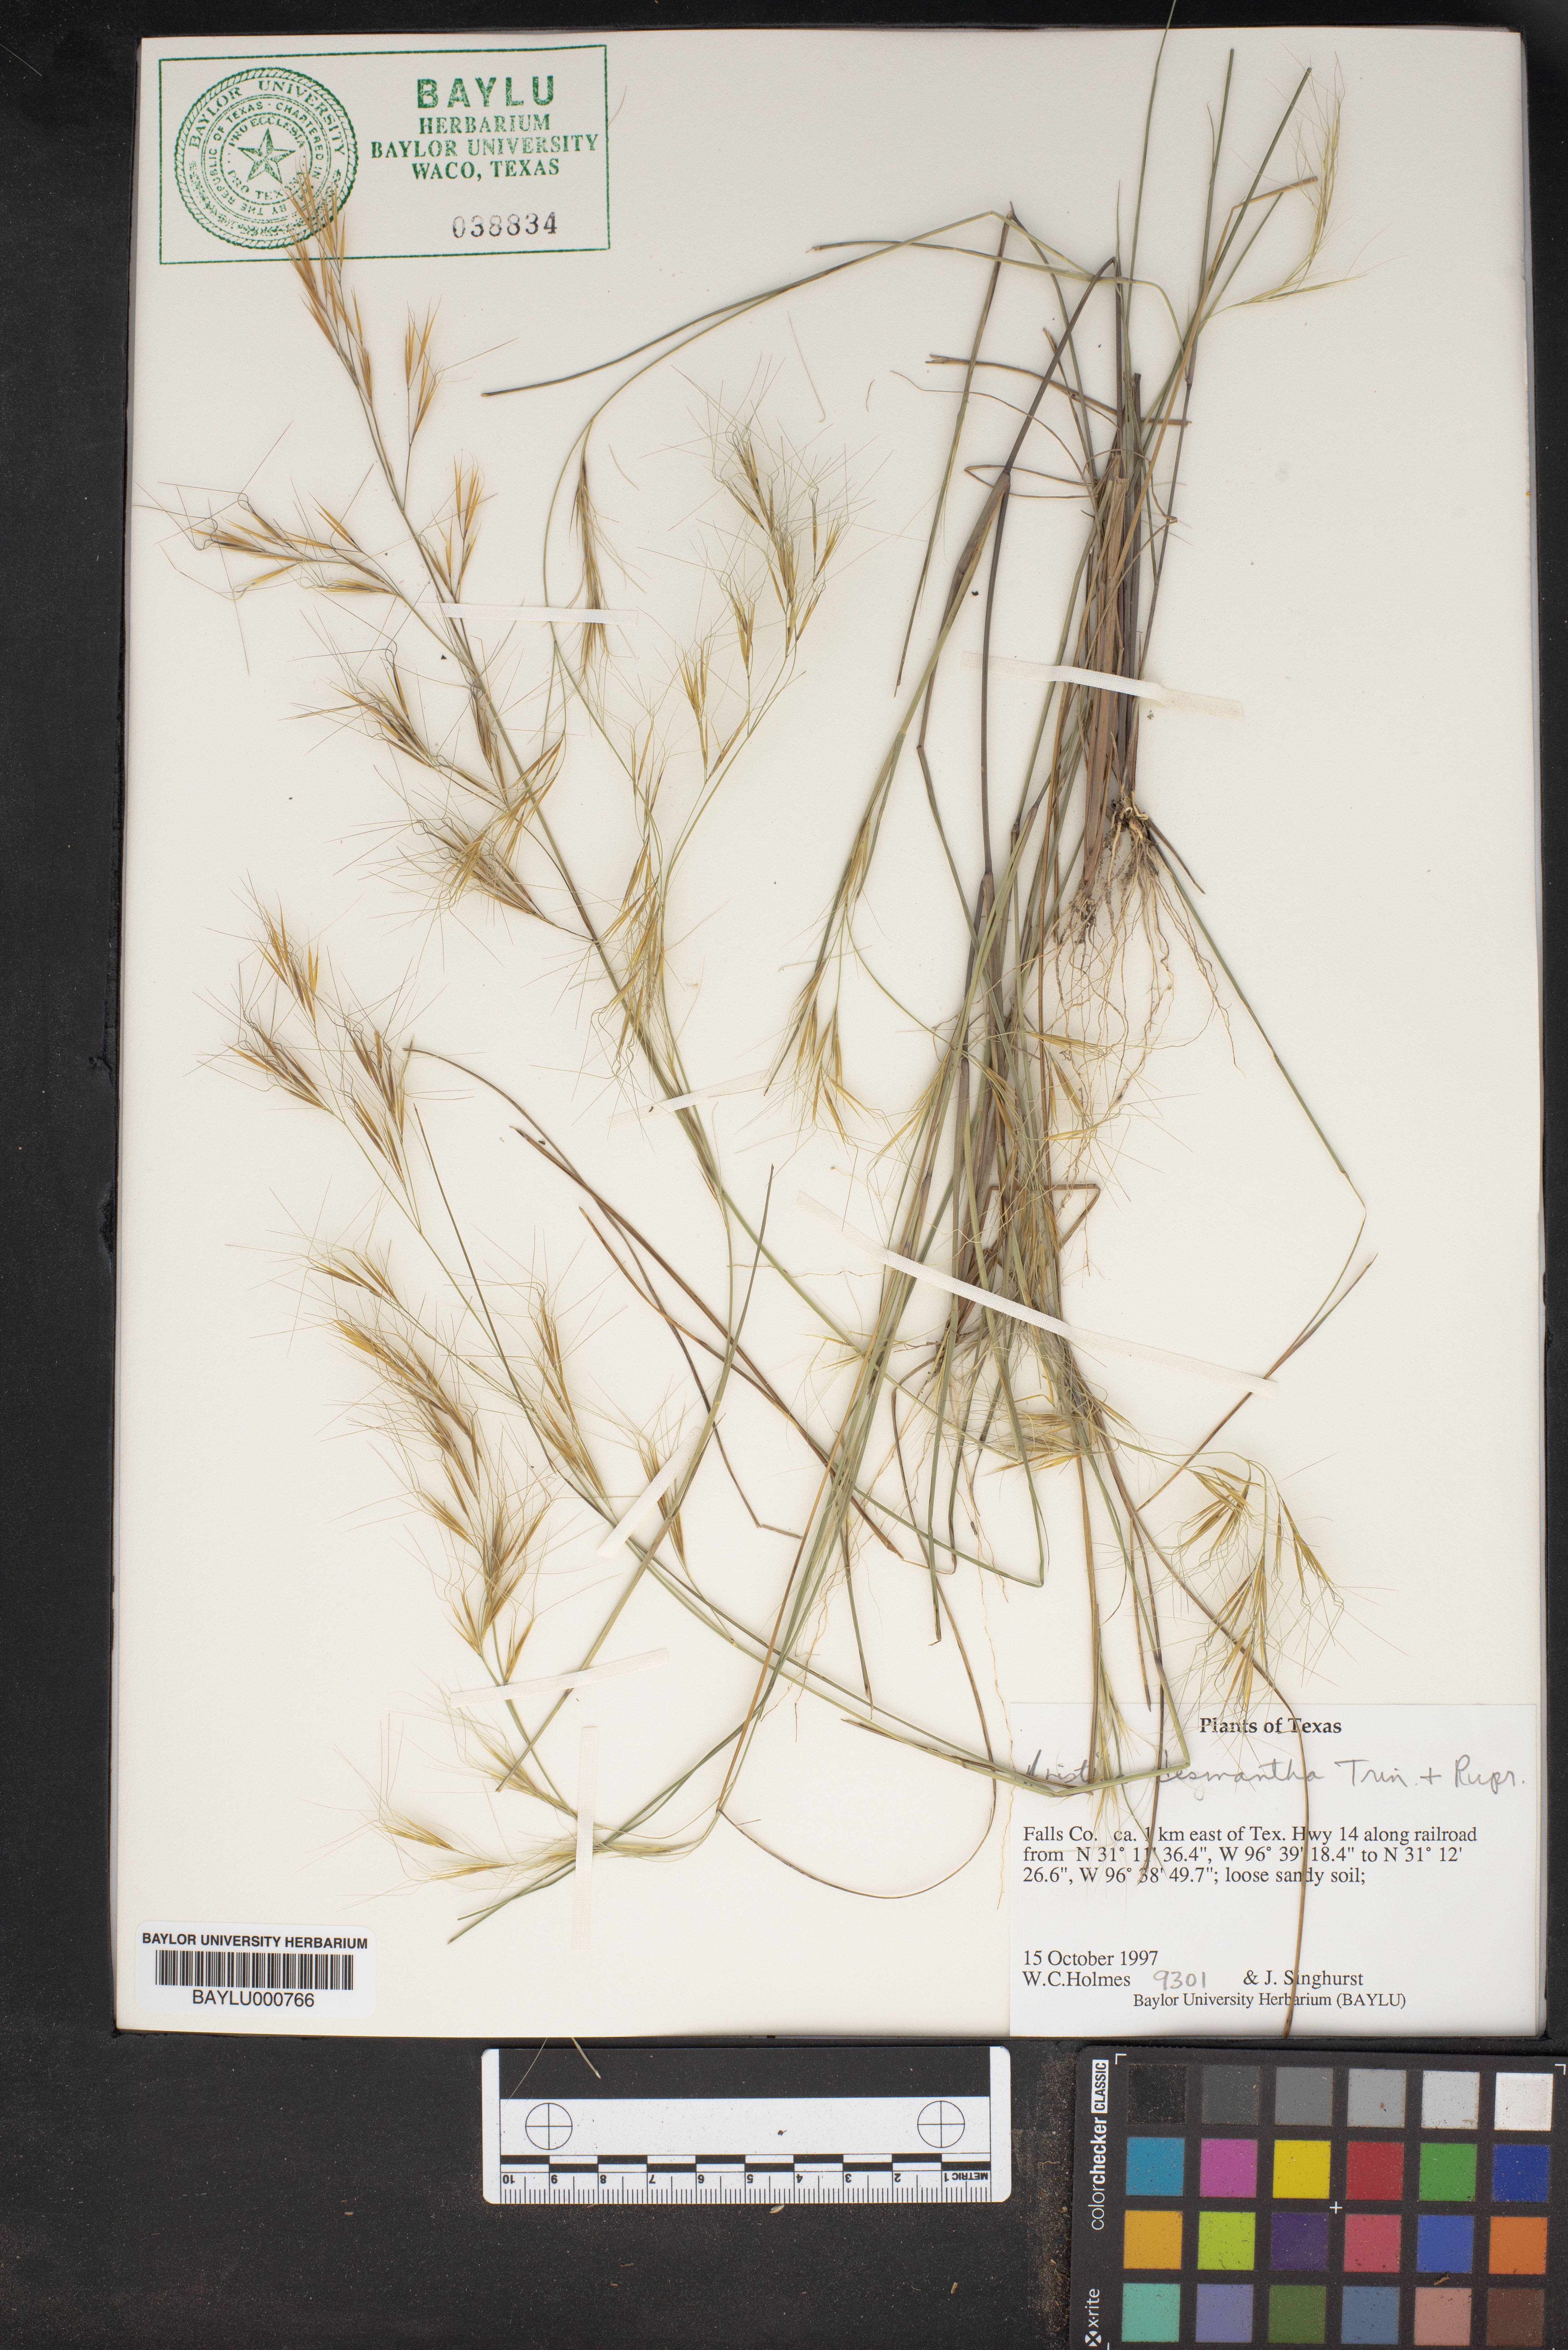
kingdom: Plantae
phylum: Tracheophyta
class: Liliopsida
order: Poales
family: Poaceae
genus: Aristida
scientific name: Aristida desmantha
